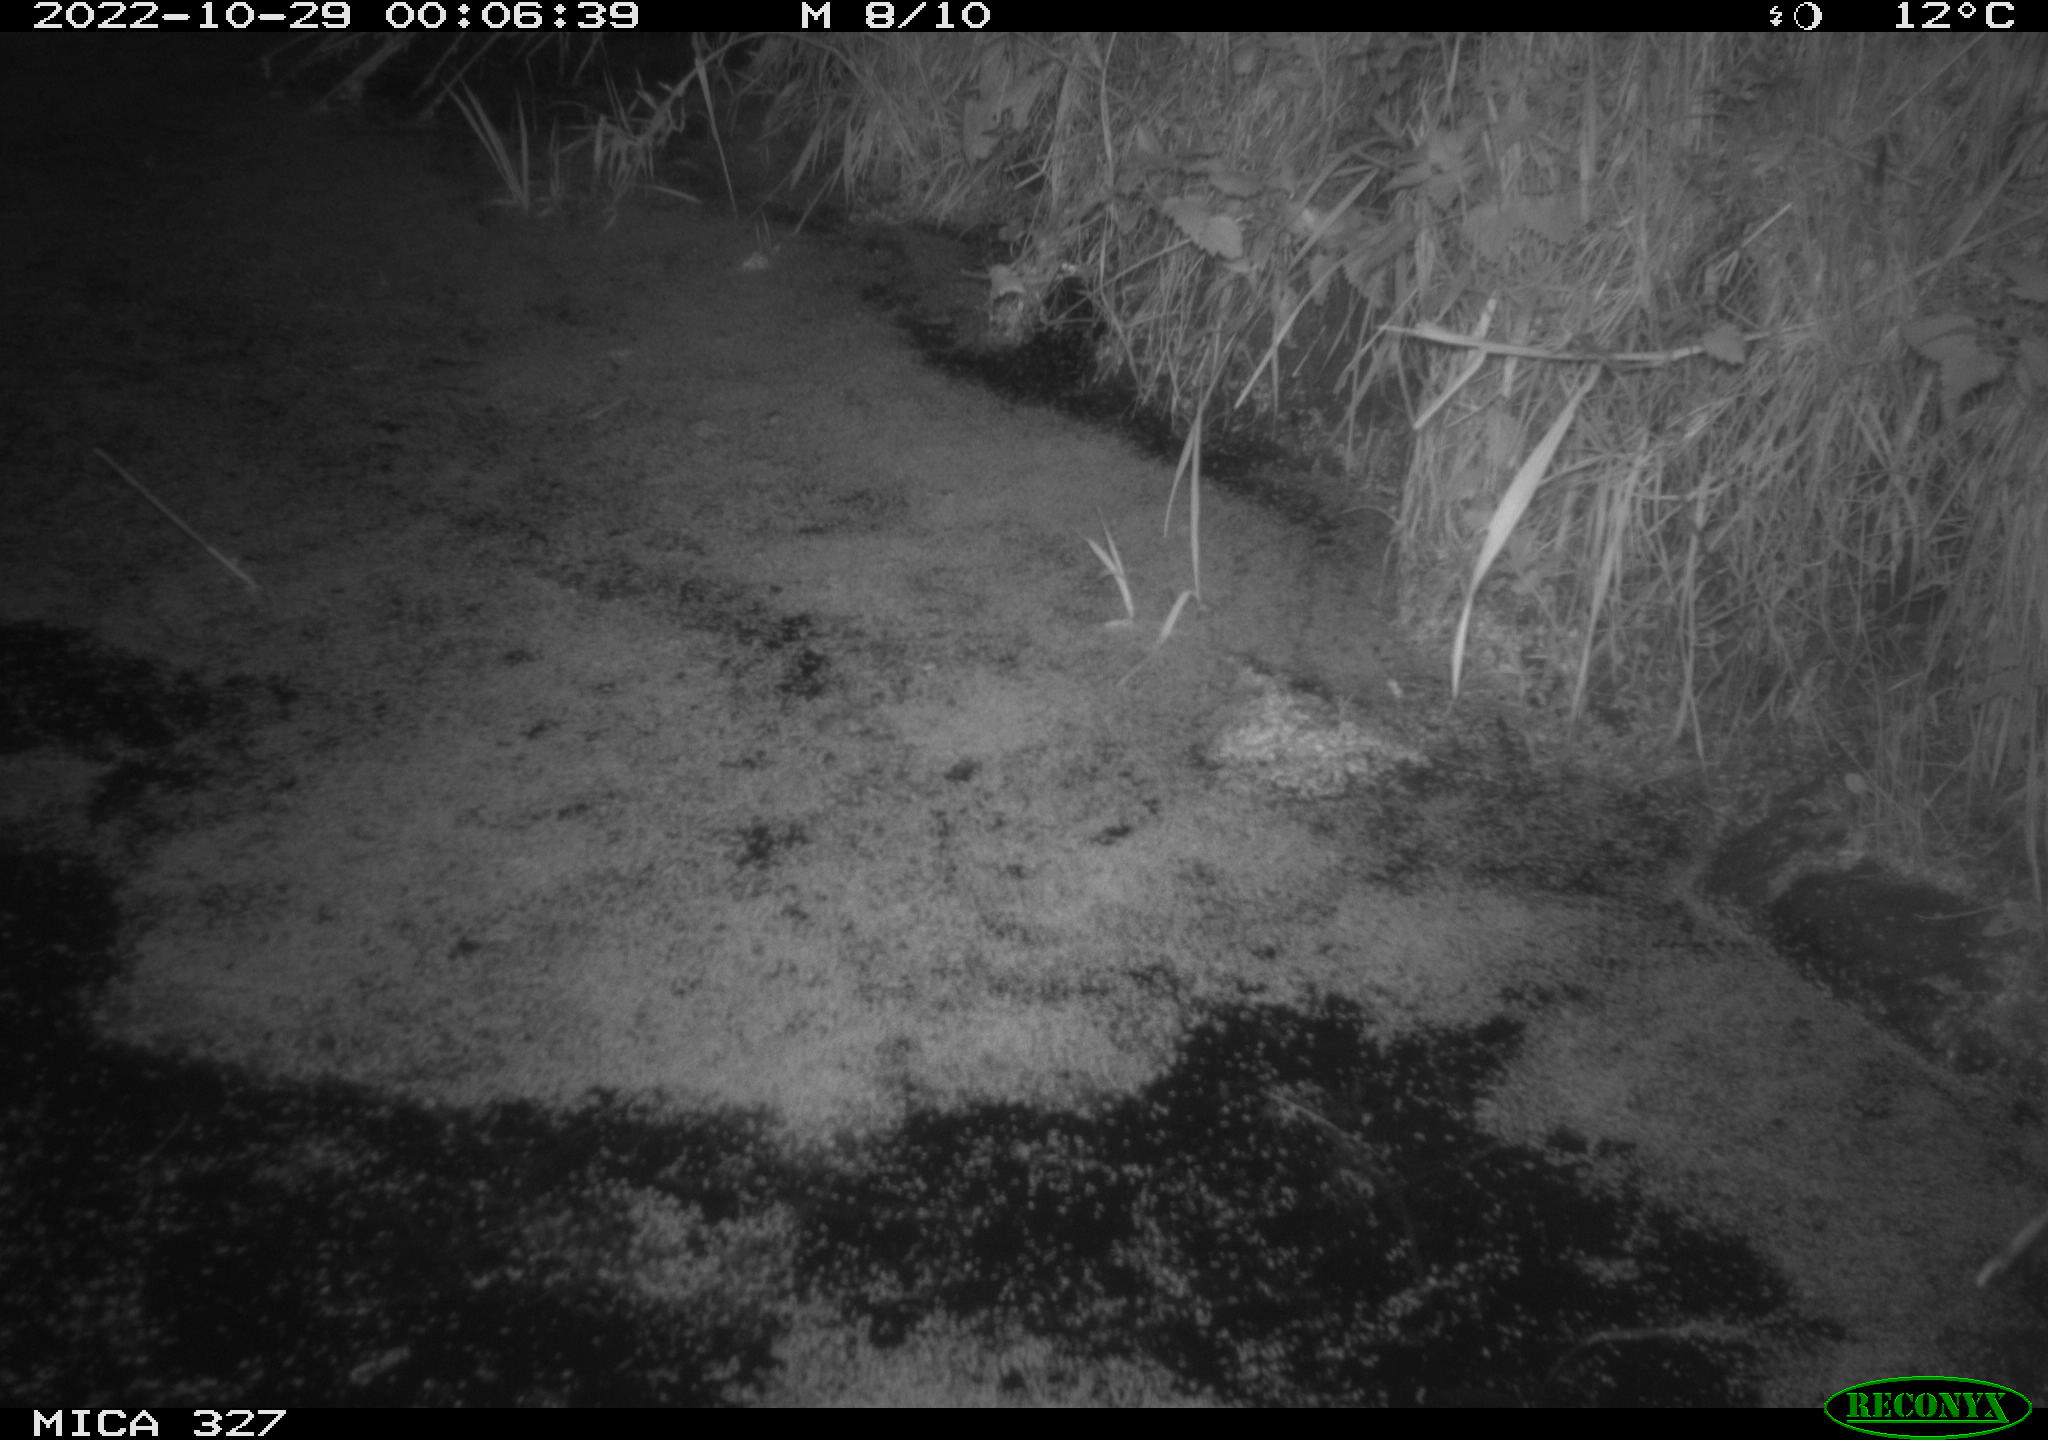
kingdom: Animalia
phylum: Chordata
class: Mammalia
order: Rodentia
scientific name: Rodentia
